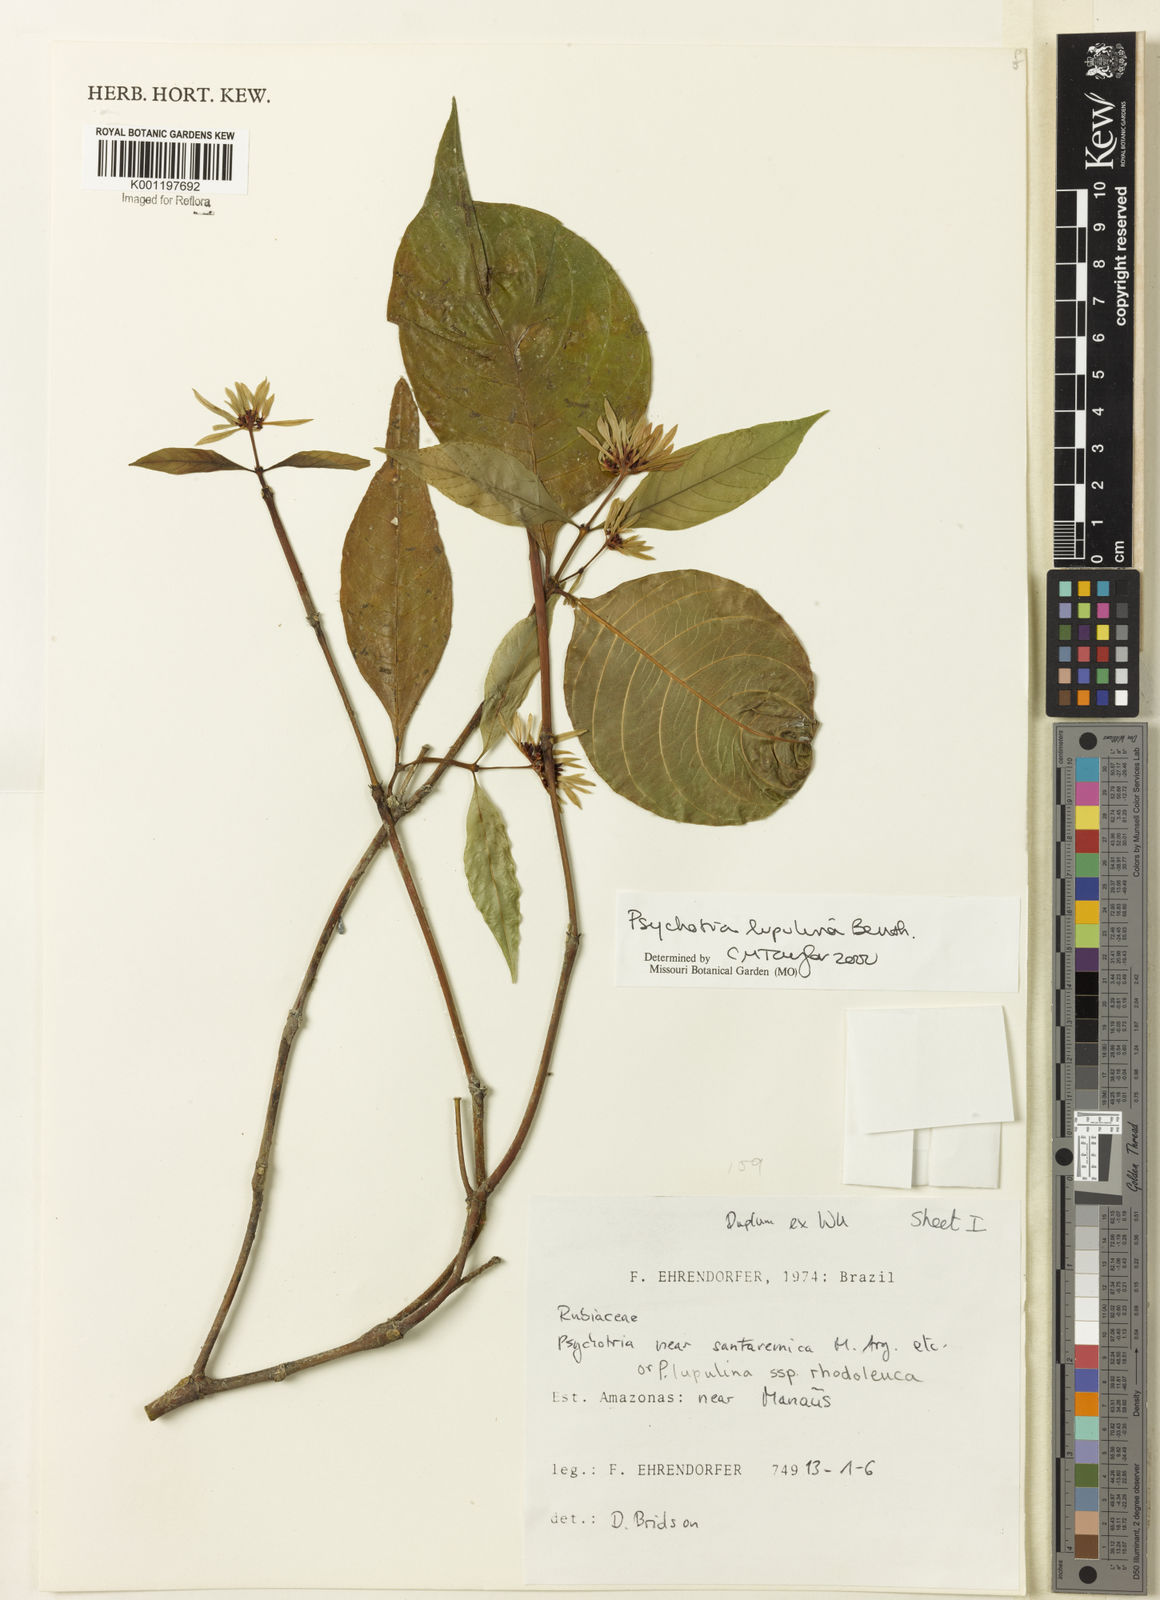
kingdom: Plantae
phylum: Tracheophyta
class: Magnoliopsida
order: Gentianales
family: Rubiaceae
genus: Palicourea
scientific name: Palicourea justiciifolia
